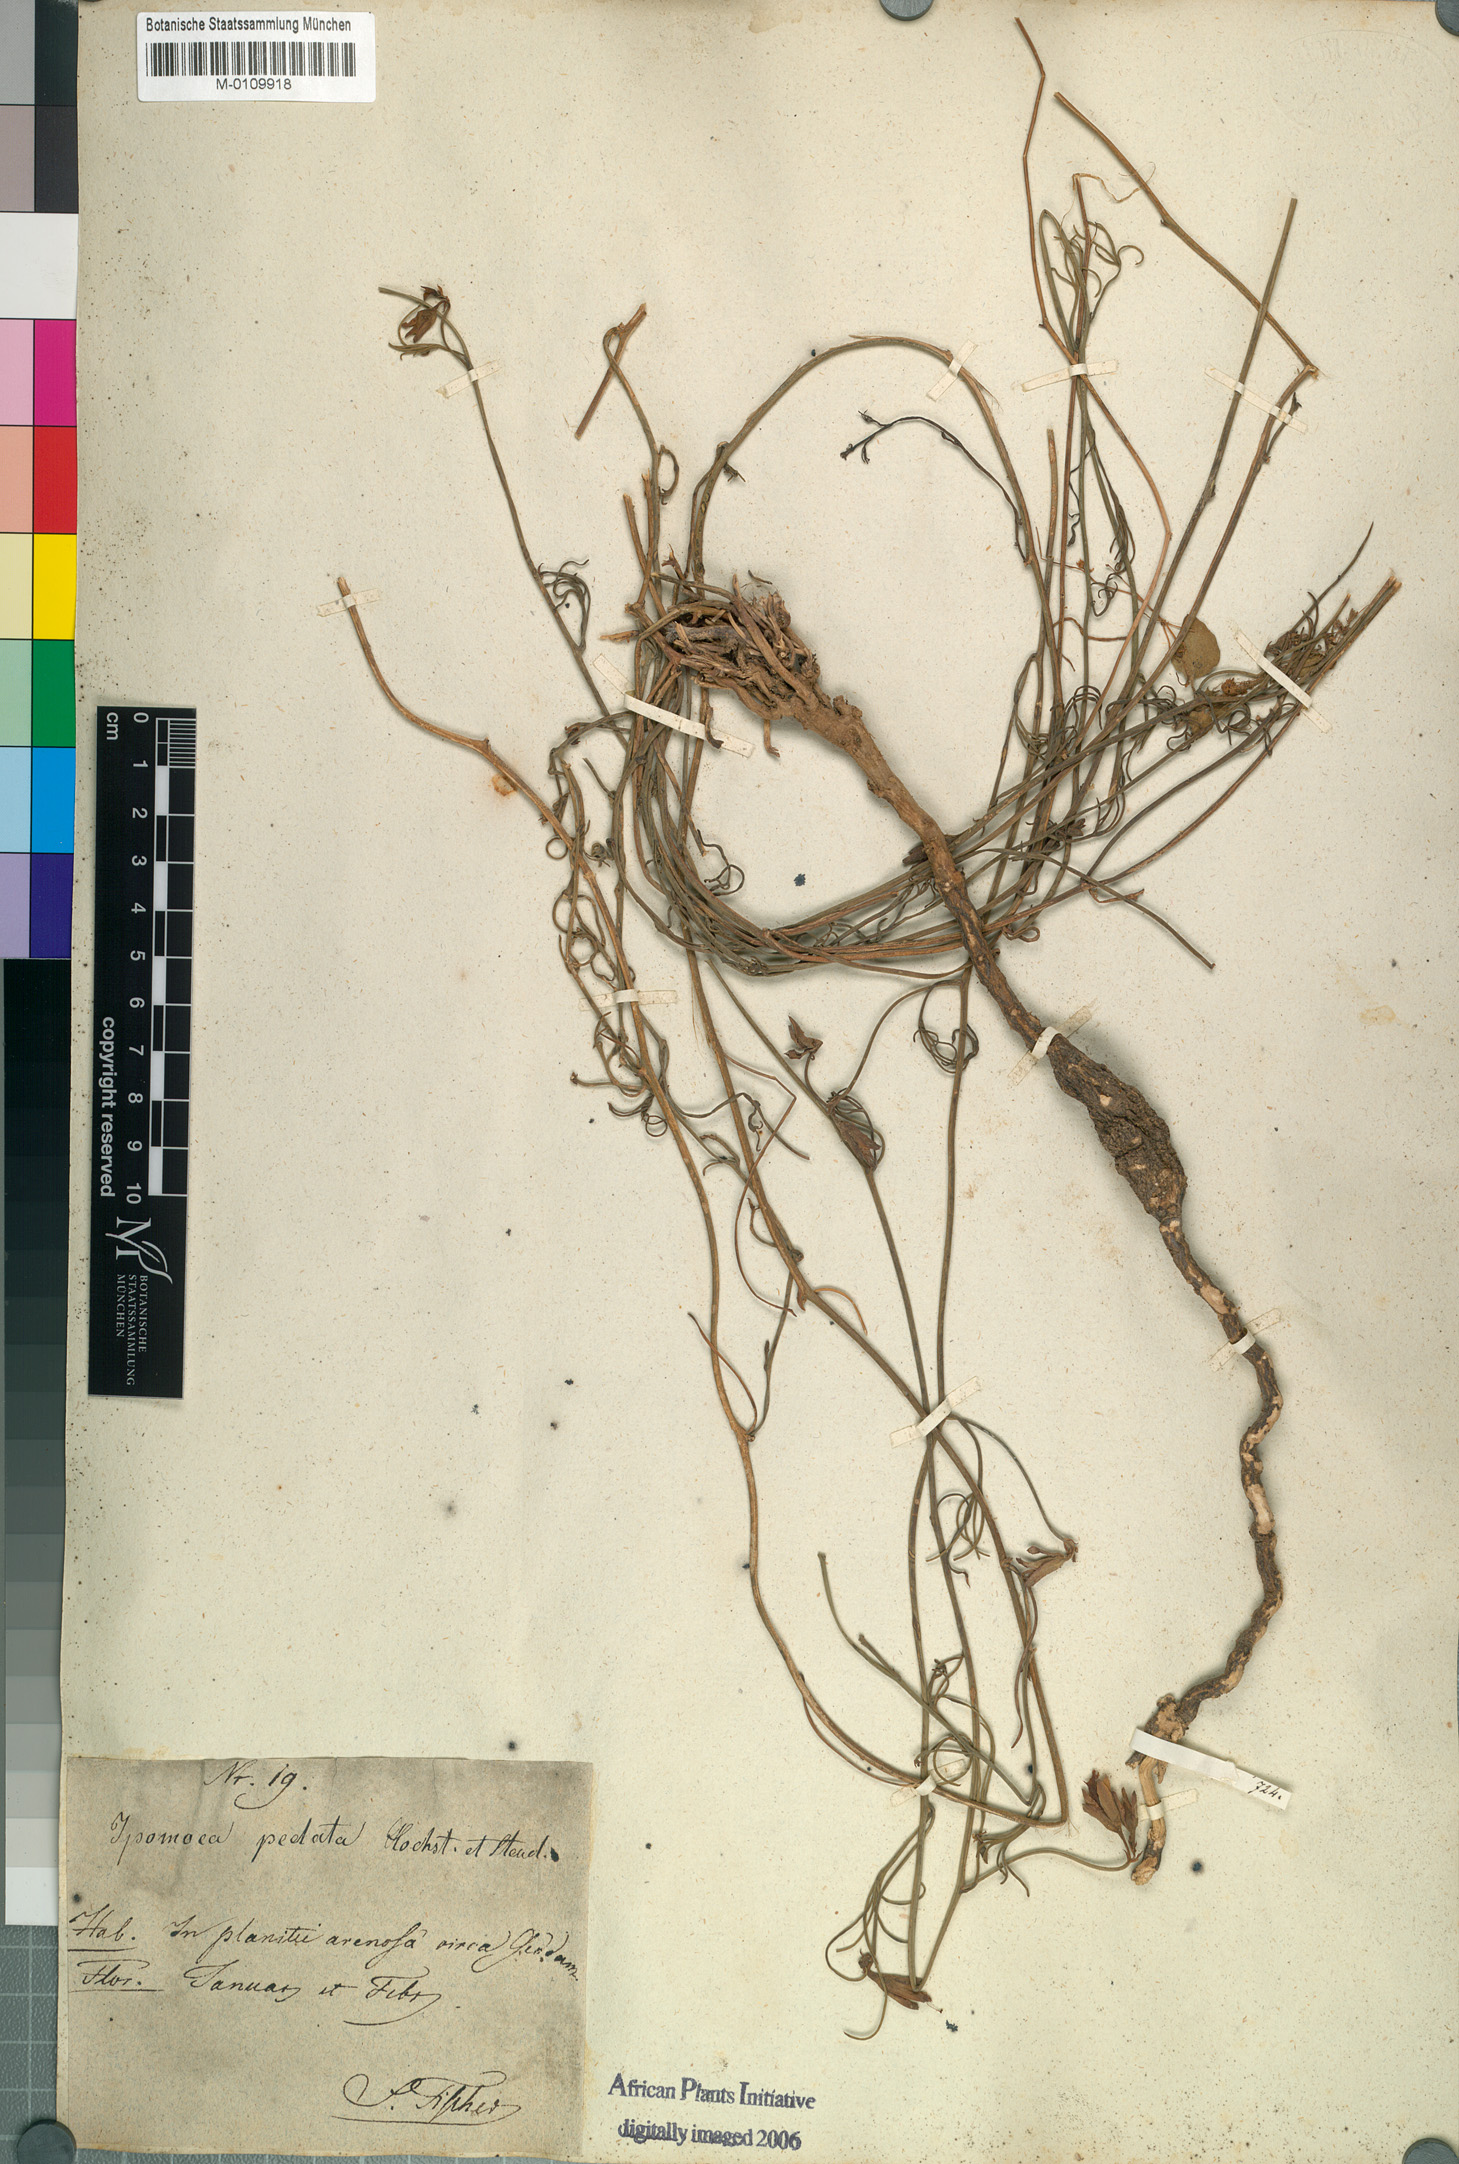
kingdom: Plantae
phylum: Tracheophyta
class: Magnoliopsida
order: Solanales
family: Convolvulaceae
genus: Distimake
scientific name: Distimake semisagittus
